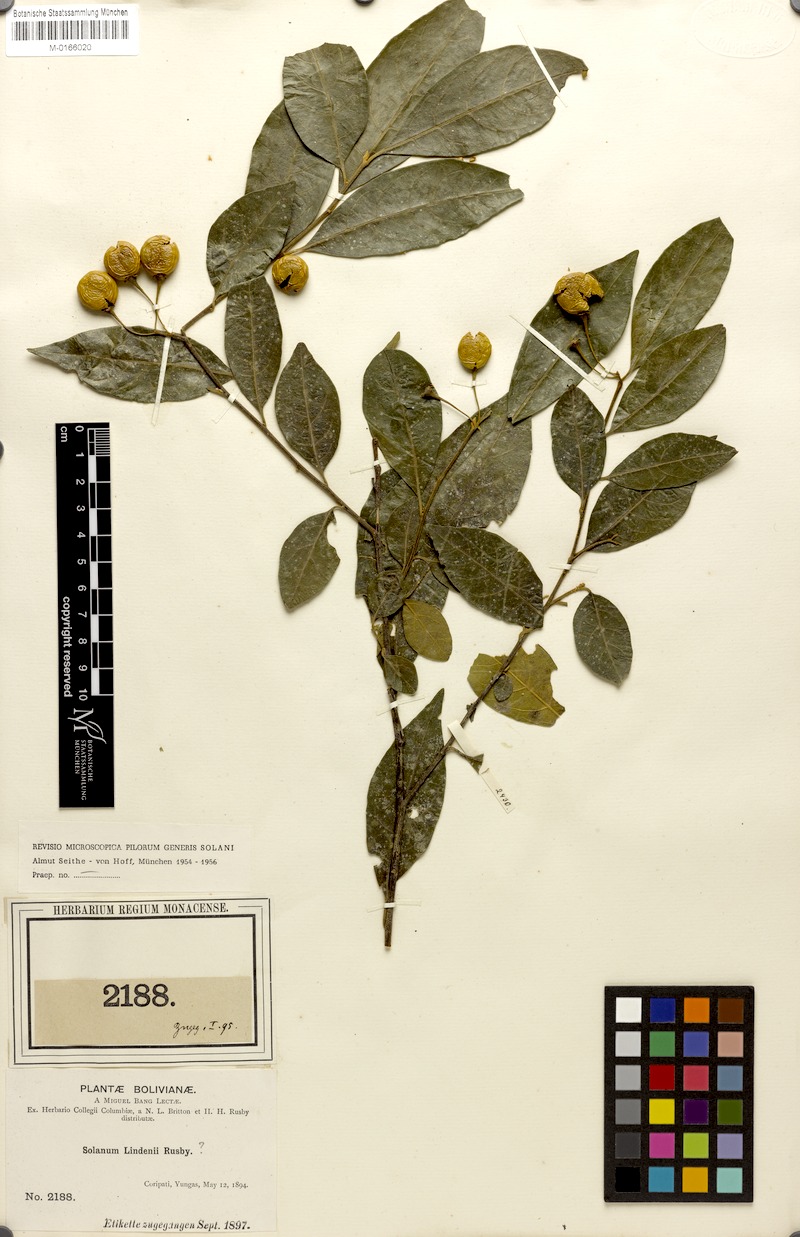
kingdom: Plantae
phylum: Tracheophyta
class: Magnoliopsida
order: Solanales
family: Solanaceae
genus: Solanum
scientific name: Solanum lindenii
